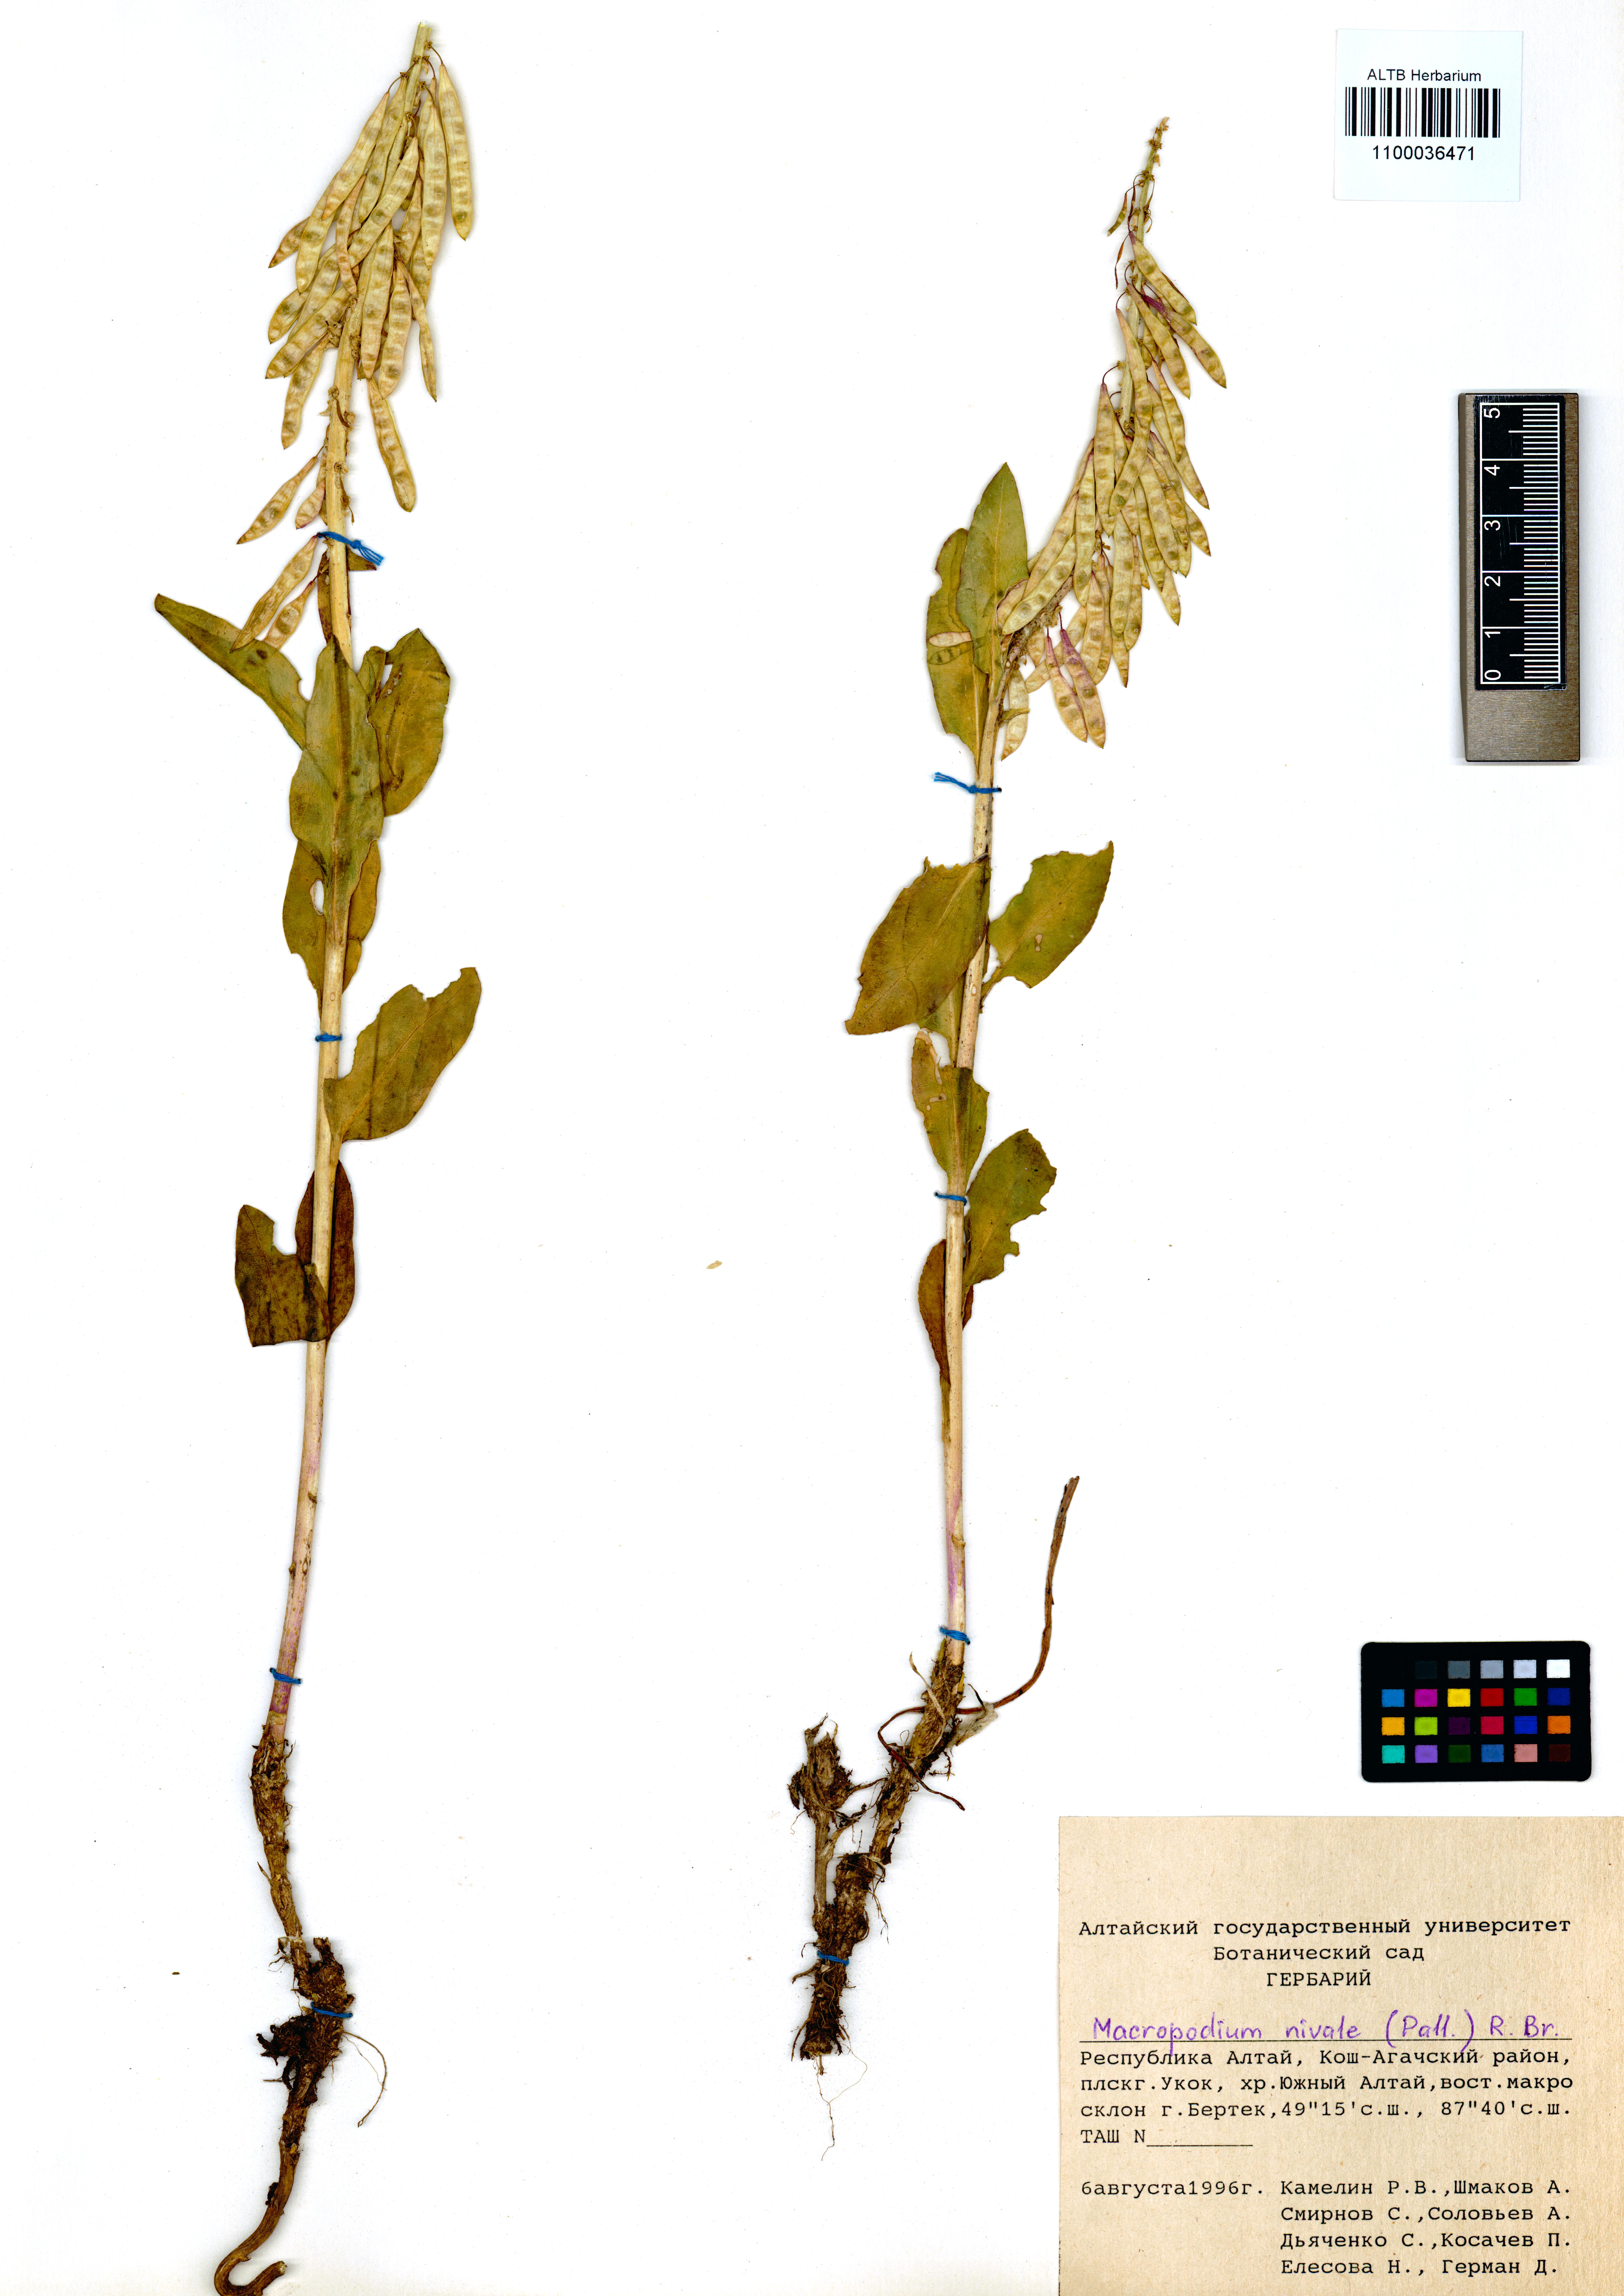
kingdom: Plantae
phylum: Tracheophyta
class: Magnoliopsida
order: Brassicales
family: Brassicaceae
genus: Macropodium
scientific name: Macropodium nivale
